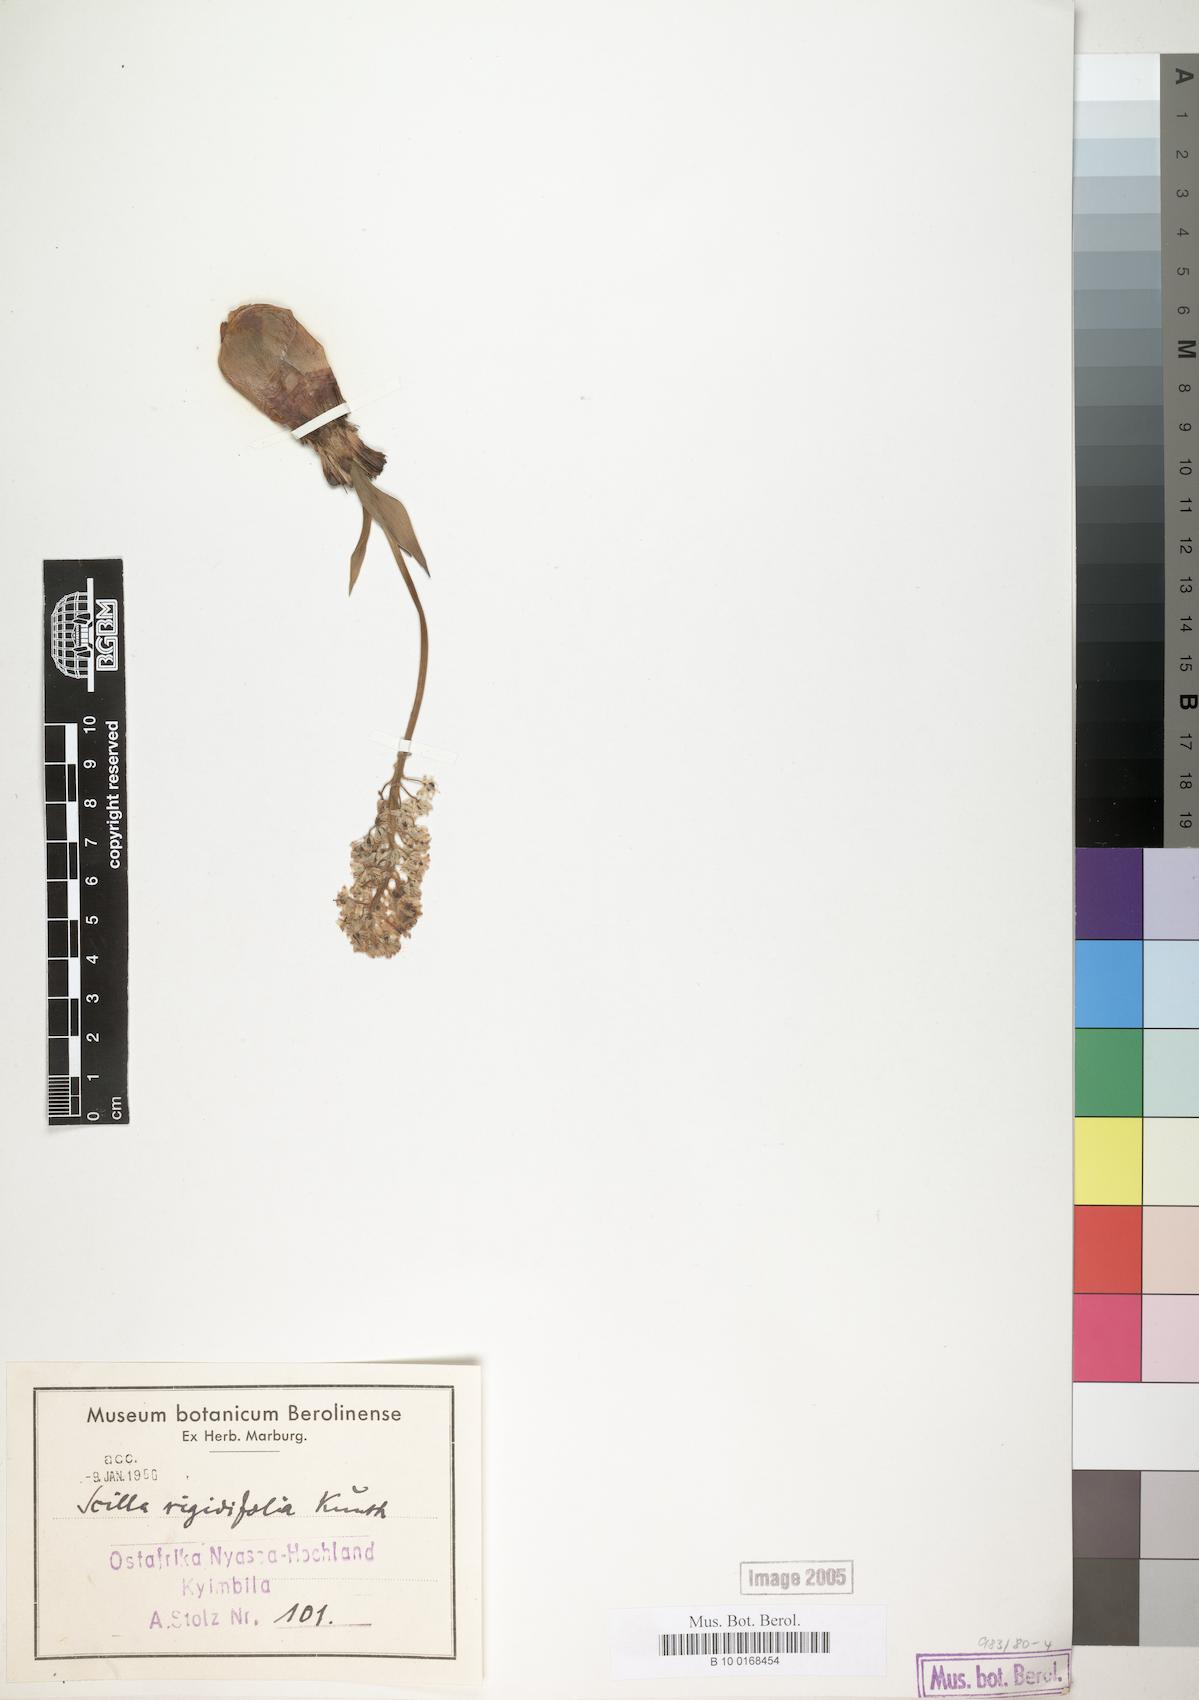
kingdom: Plantae
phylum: Tracheophyta
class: Liliopsida
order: Asparagales
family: Asparagaceae
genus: Schizocarphus
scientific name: Schizocarphus nervosus
